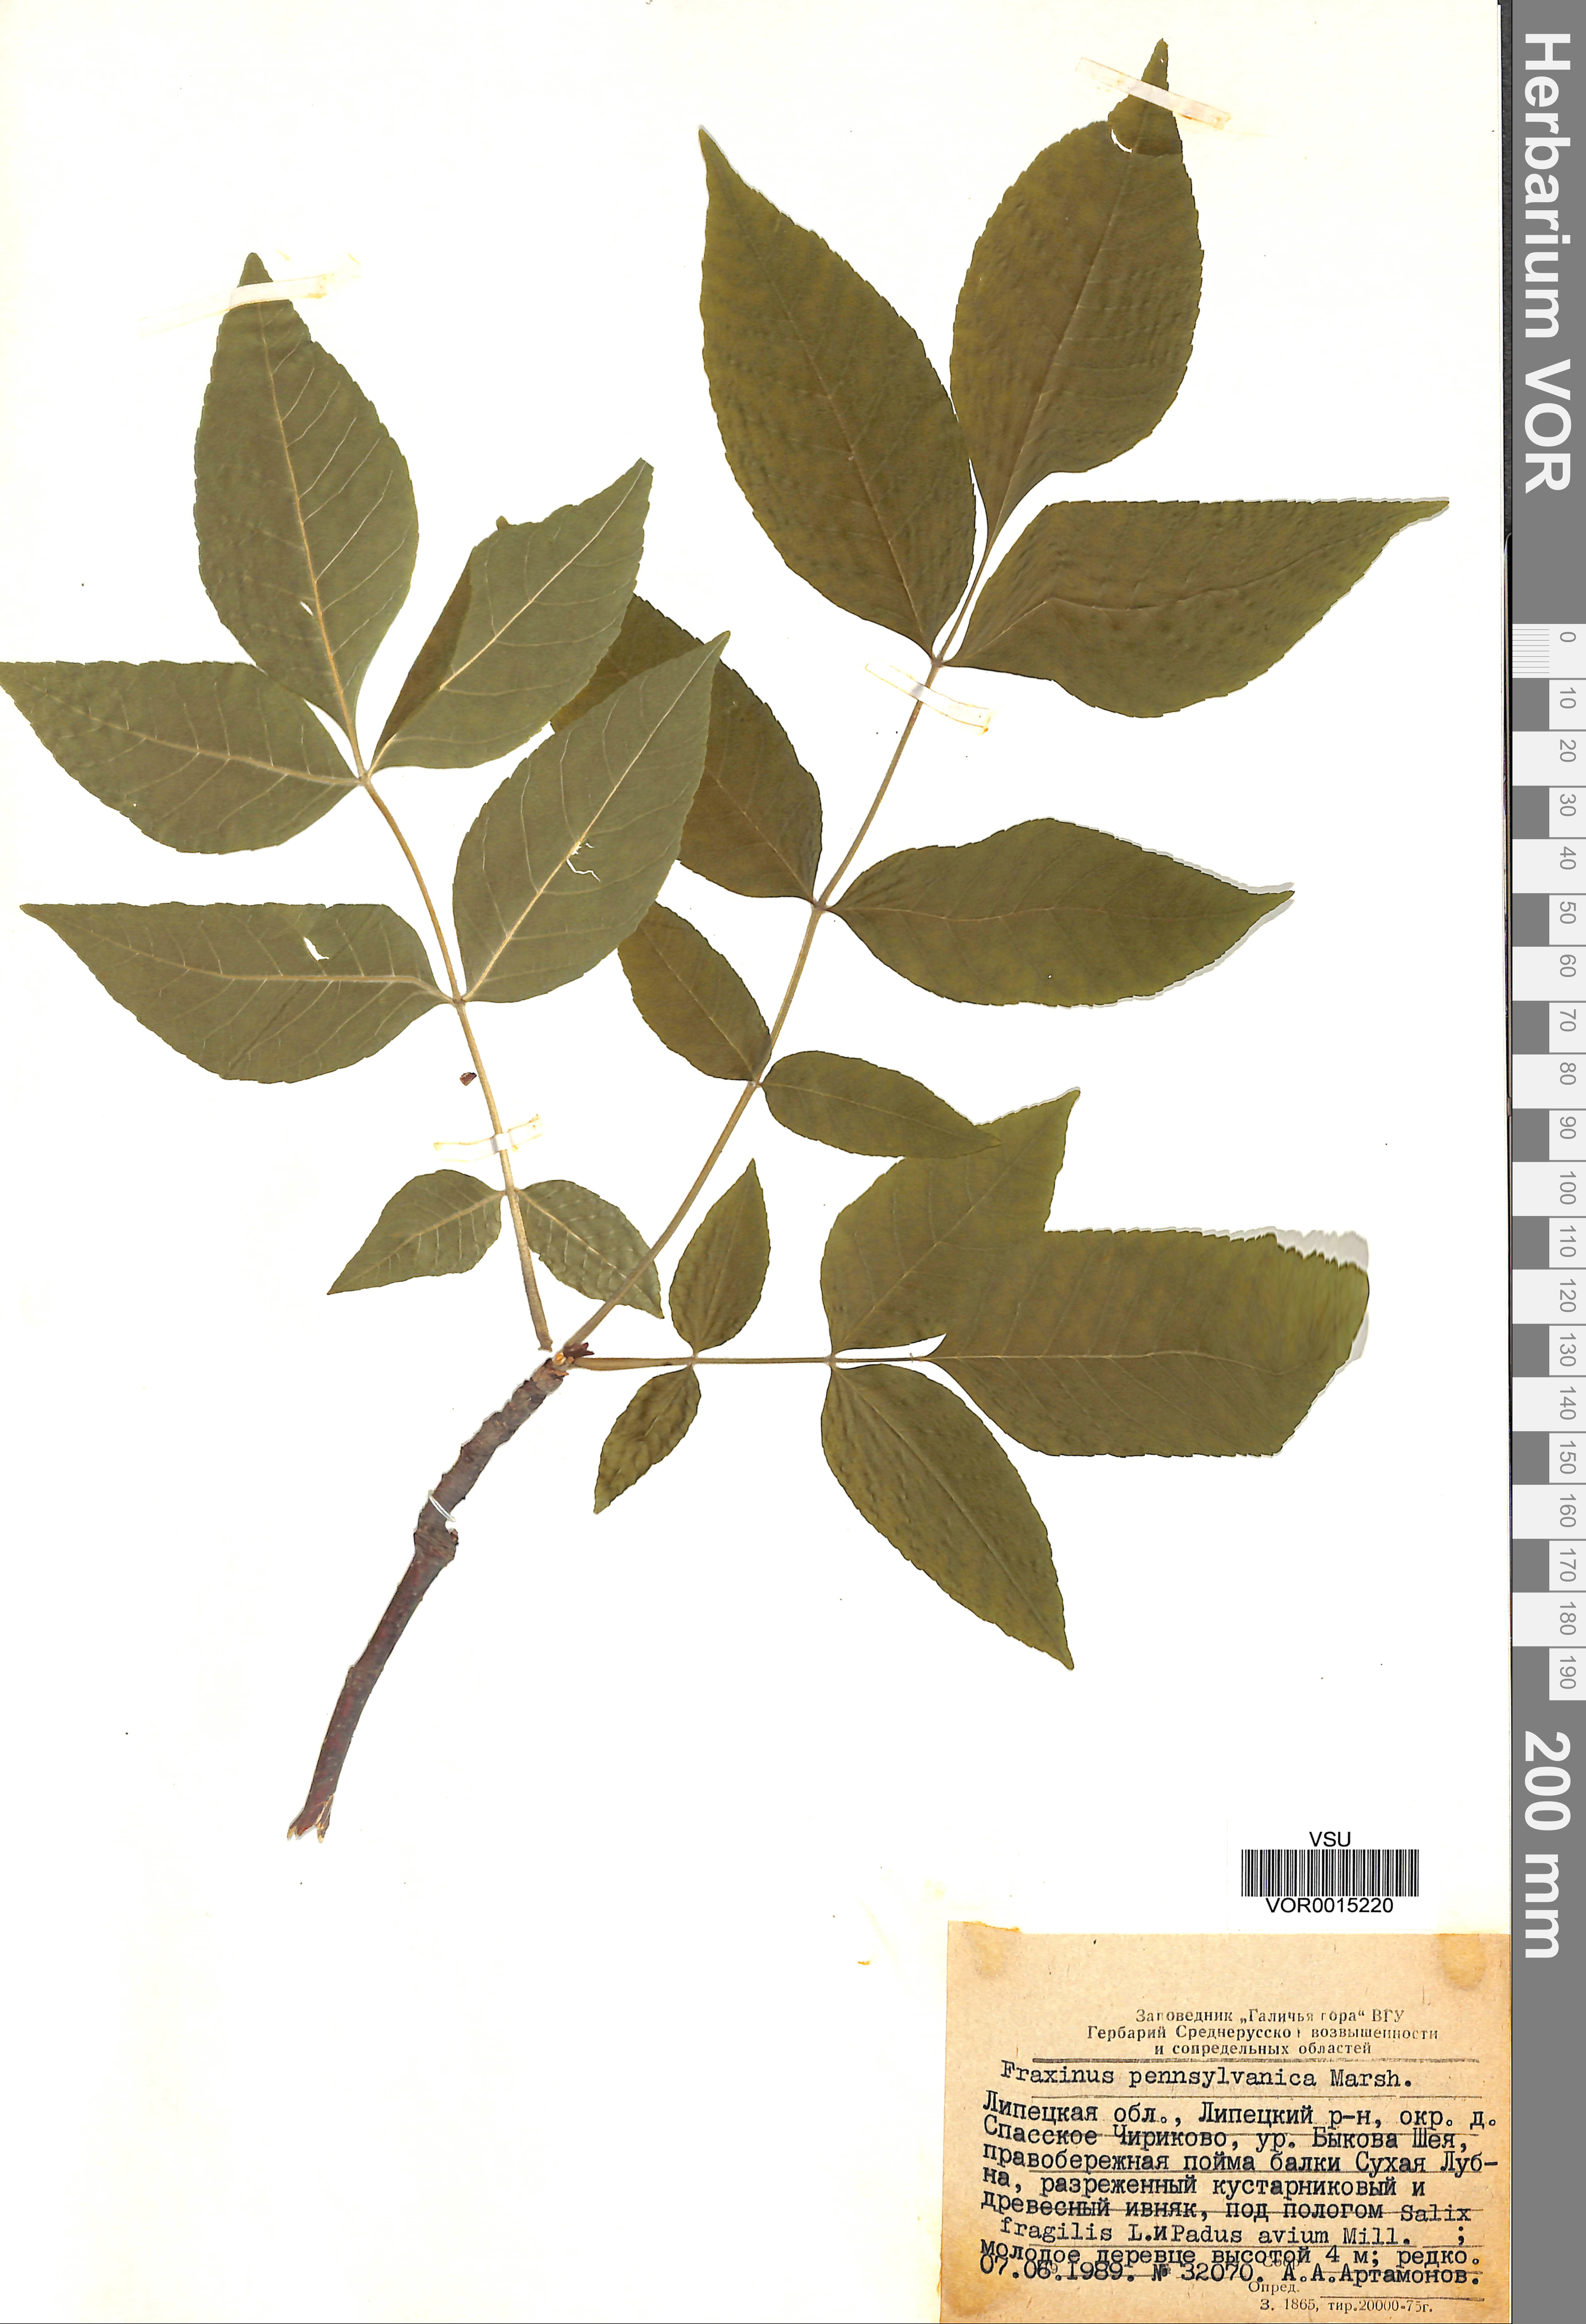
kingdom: Plantae
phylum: Tracheophyta
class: Magnoliopsida
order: Lamiales
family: Oleaceae
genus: Fraxinus
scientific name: Fraxinus pennsylvanica
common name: Green ash
